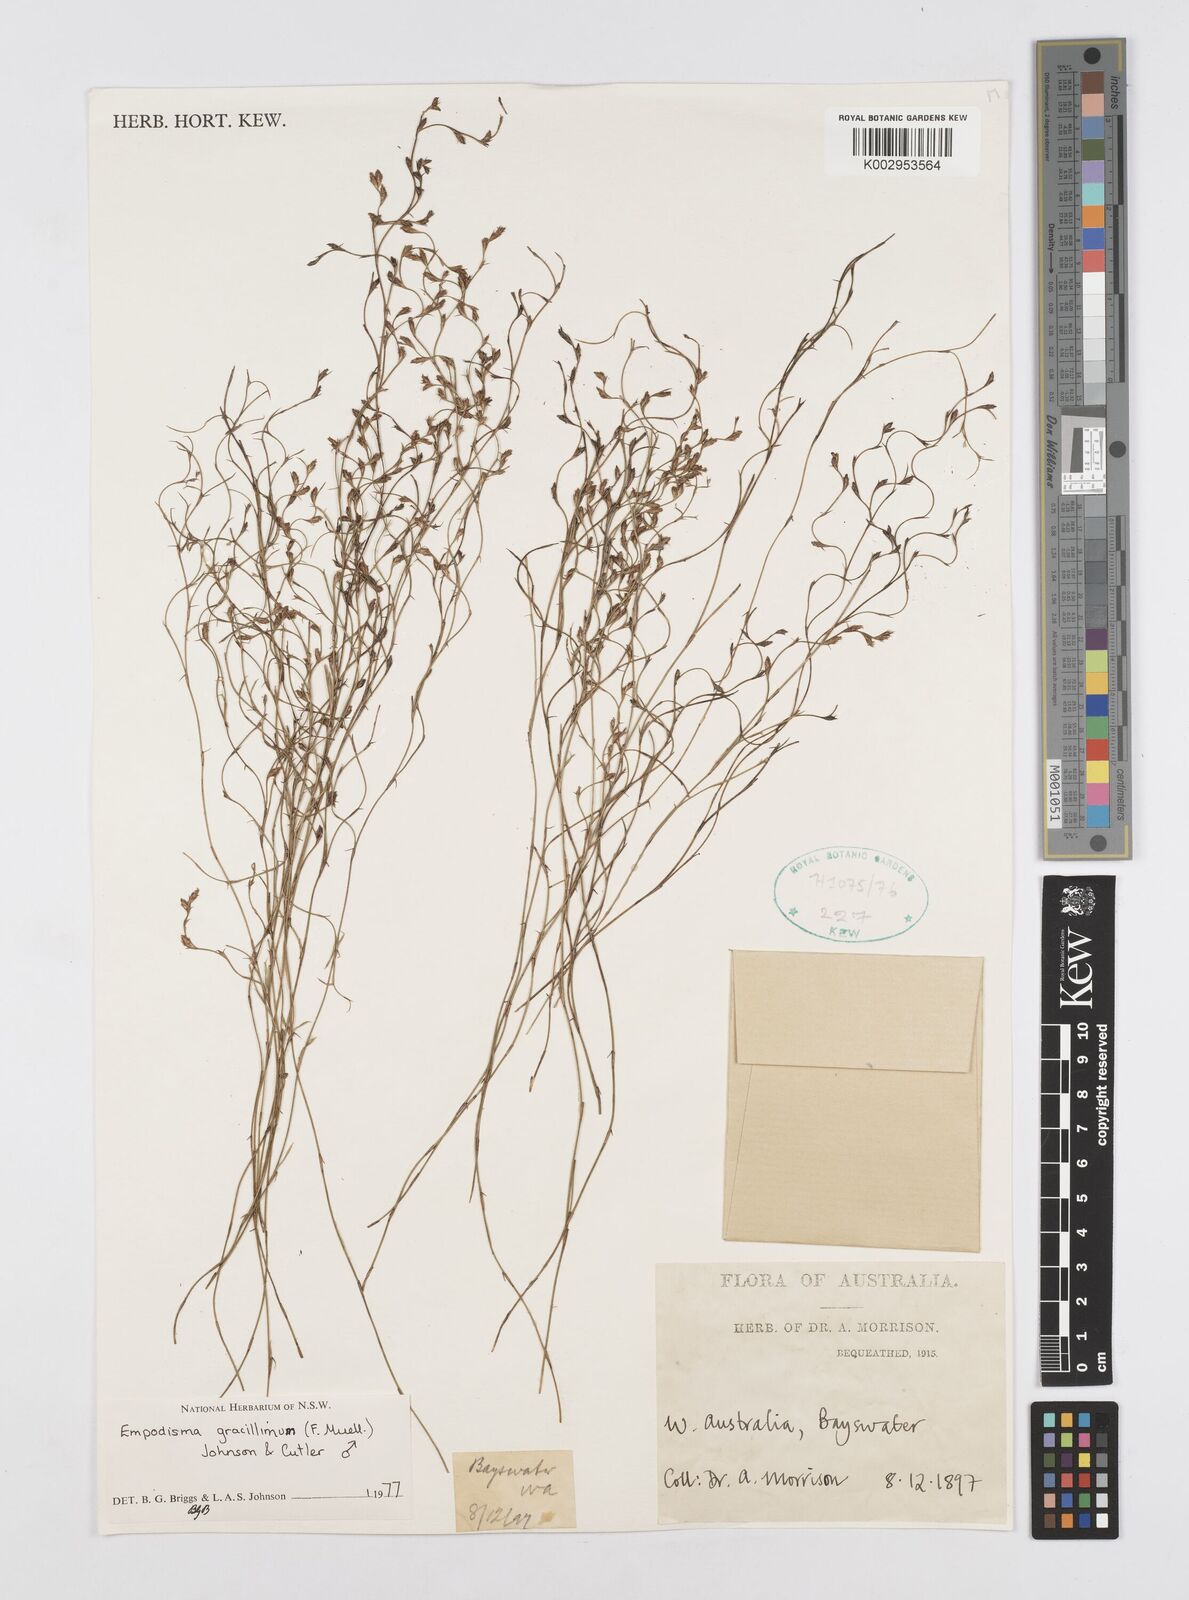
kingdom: Plantae
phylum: Tracheophyta
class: Liliopsida
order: Poales
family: Restionaceae
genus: Empodisma
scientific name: Empodisma gracillimum
